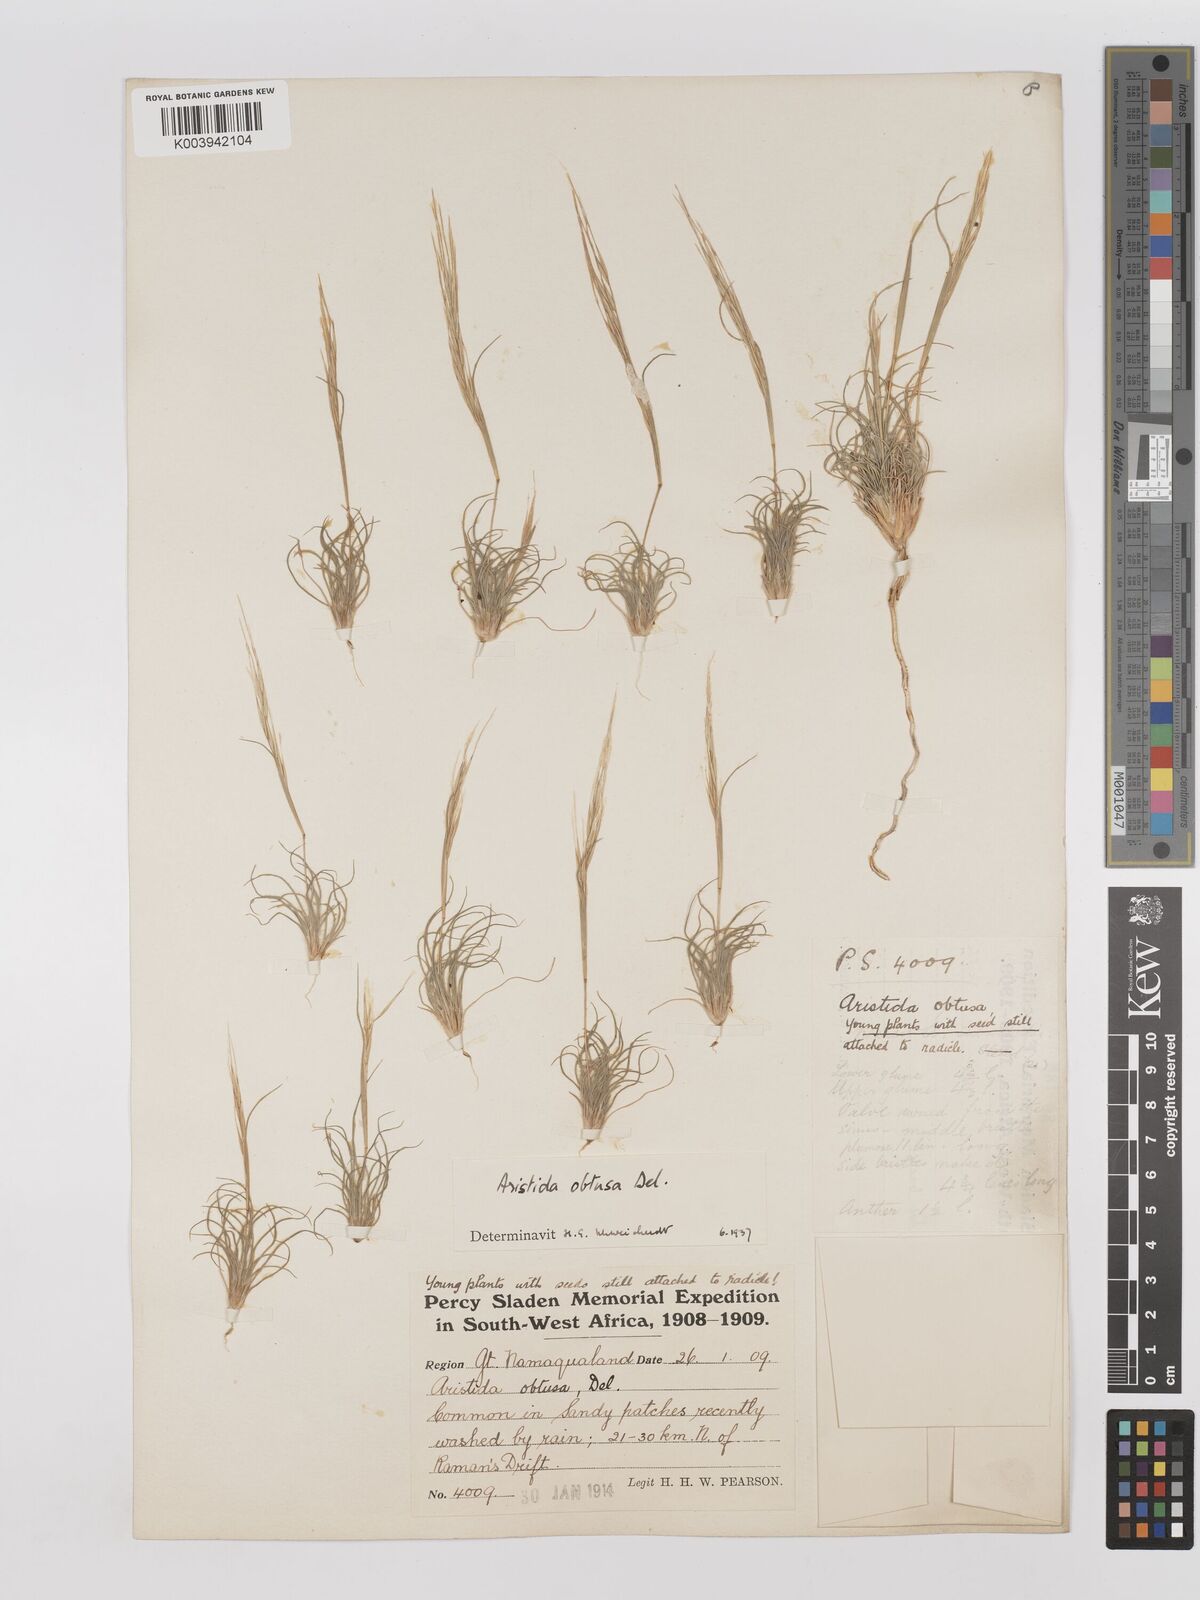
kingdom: Plantae
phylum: Tracheophyta
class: Liliopsida
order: Poales
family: Poaceae
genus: Stipagrostis
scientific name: Stipagrostis obtusa
